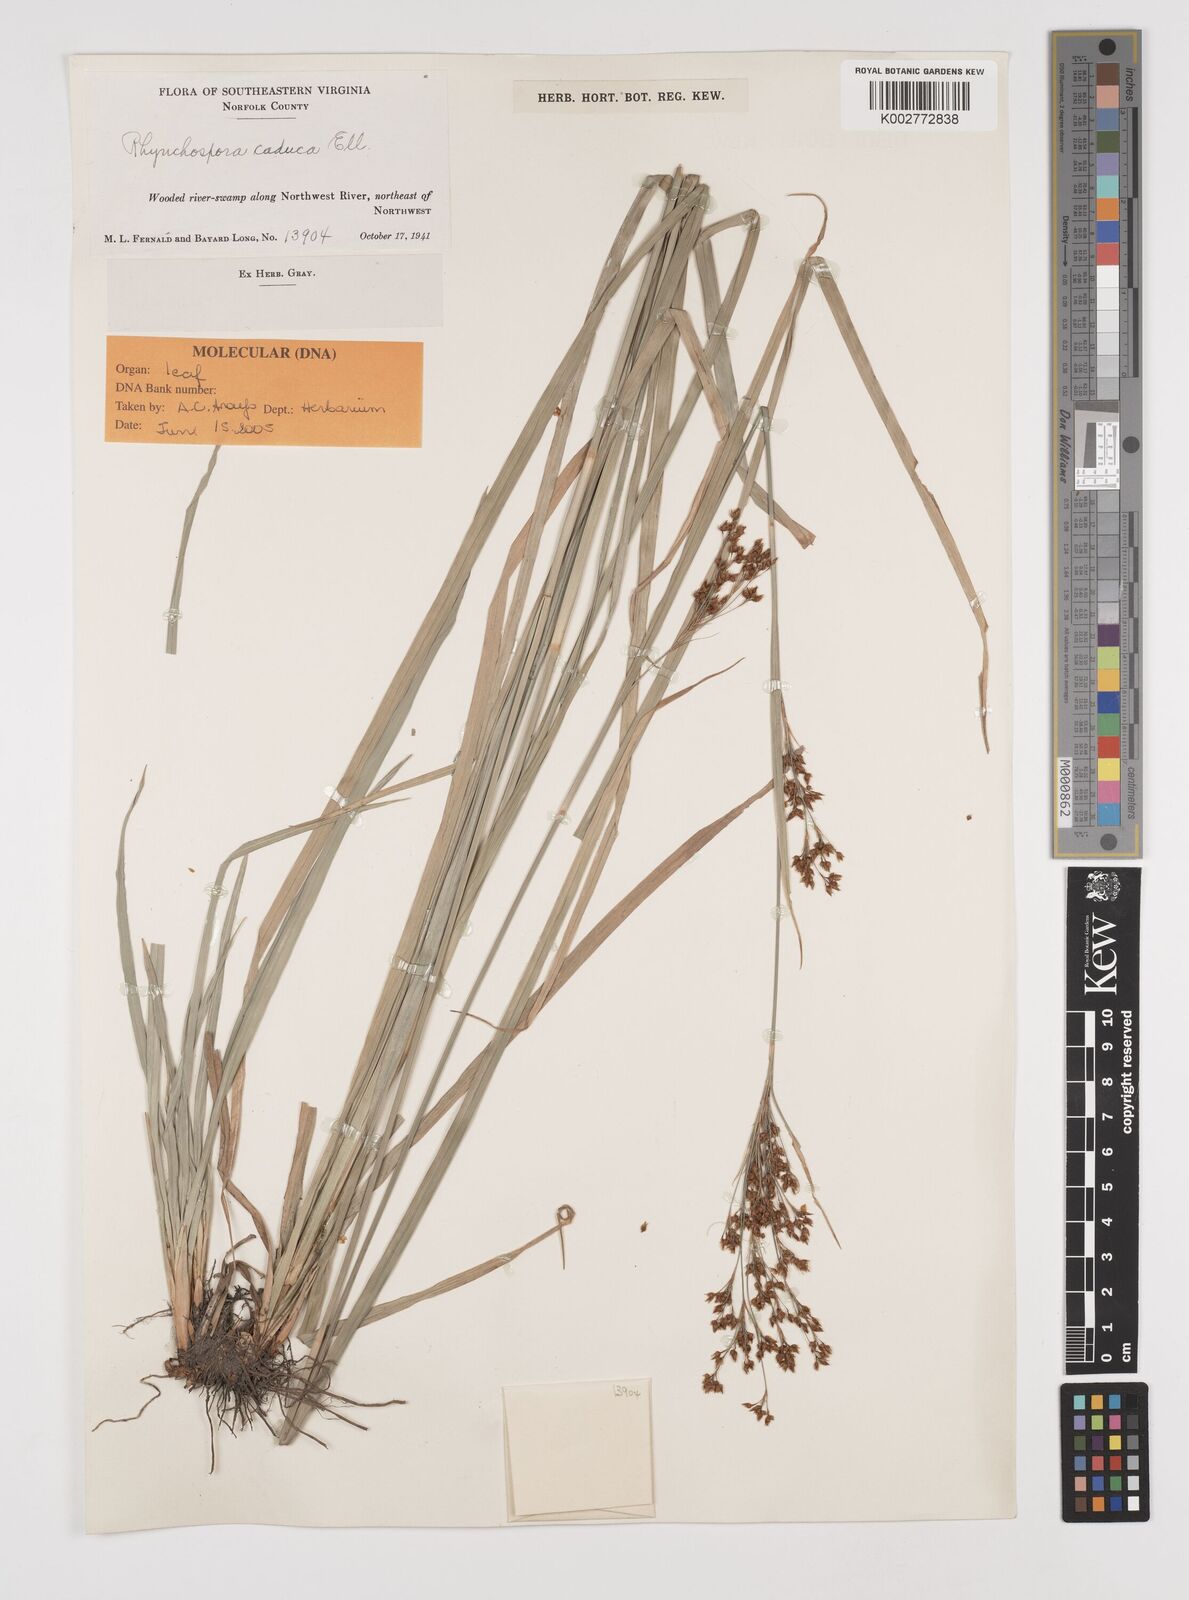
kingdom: Plantae
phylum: Tracheophyta
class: Liliopsida
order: Poales
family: Cyperaceae
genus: Rhynchospora
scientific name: Rhynchospora caduca
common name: Anglestem beaksedge
